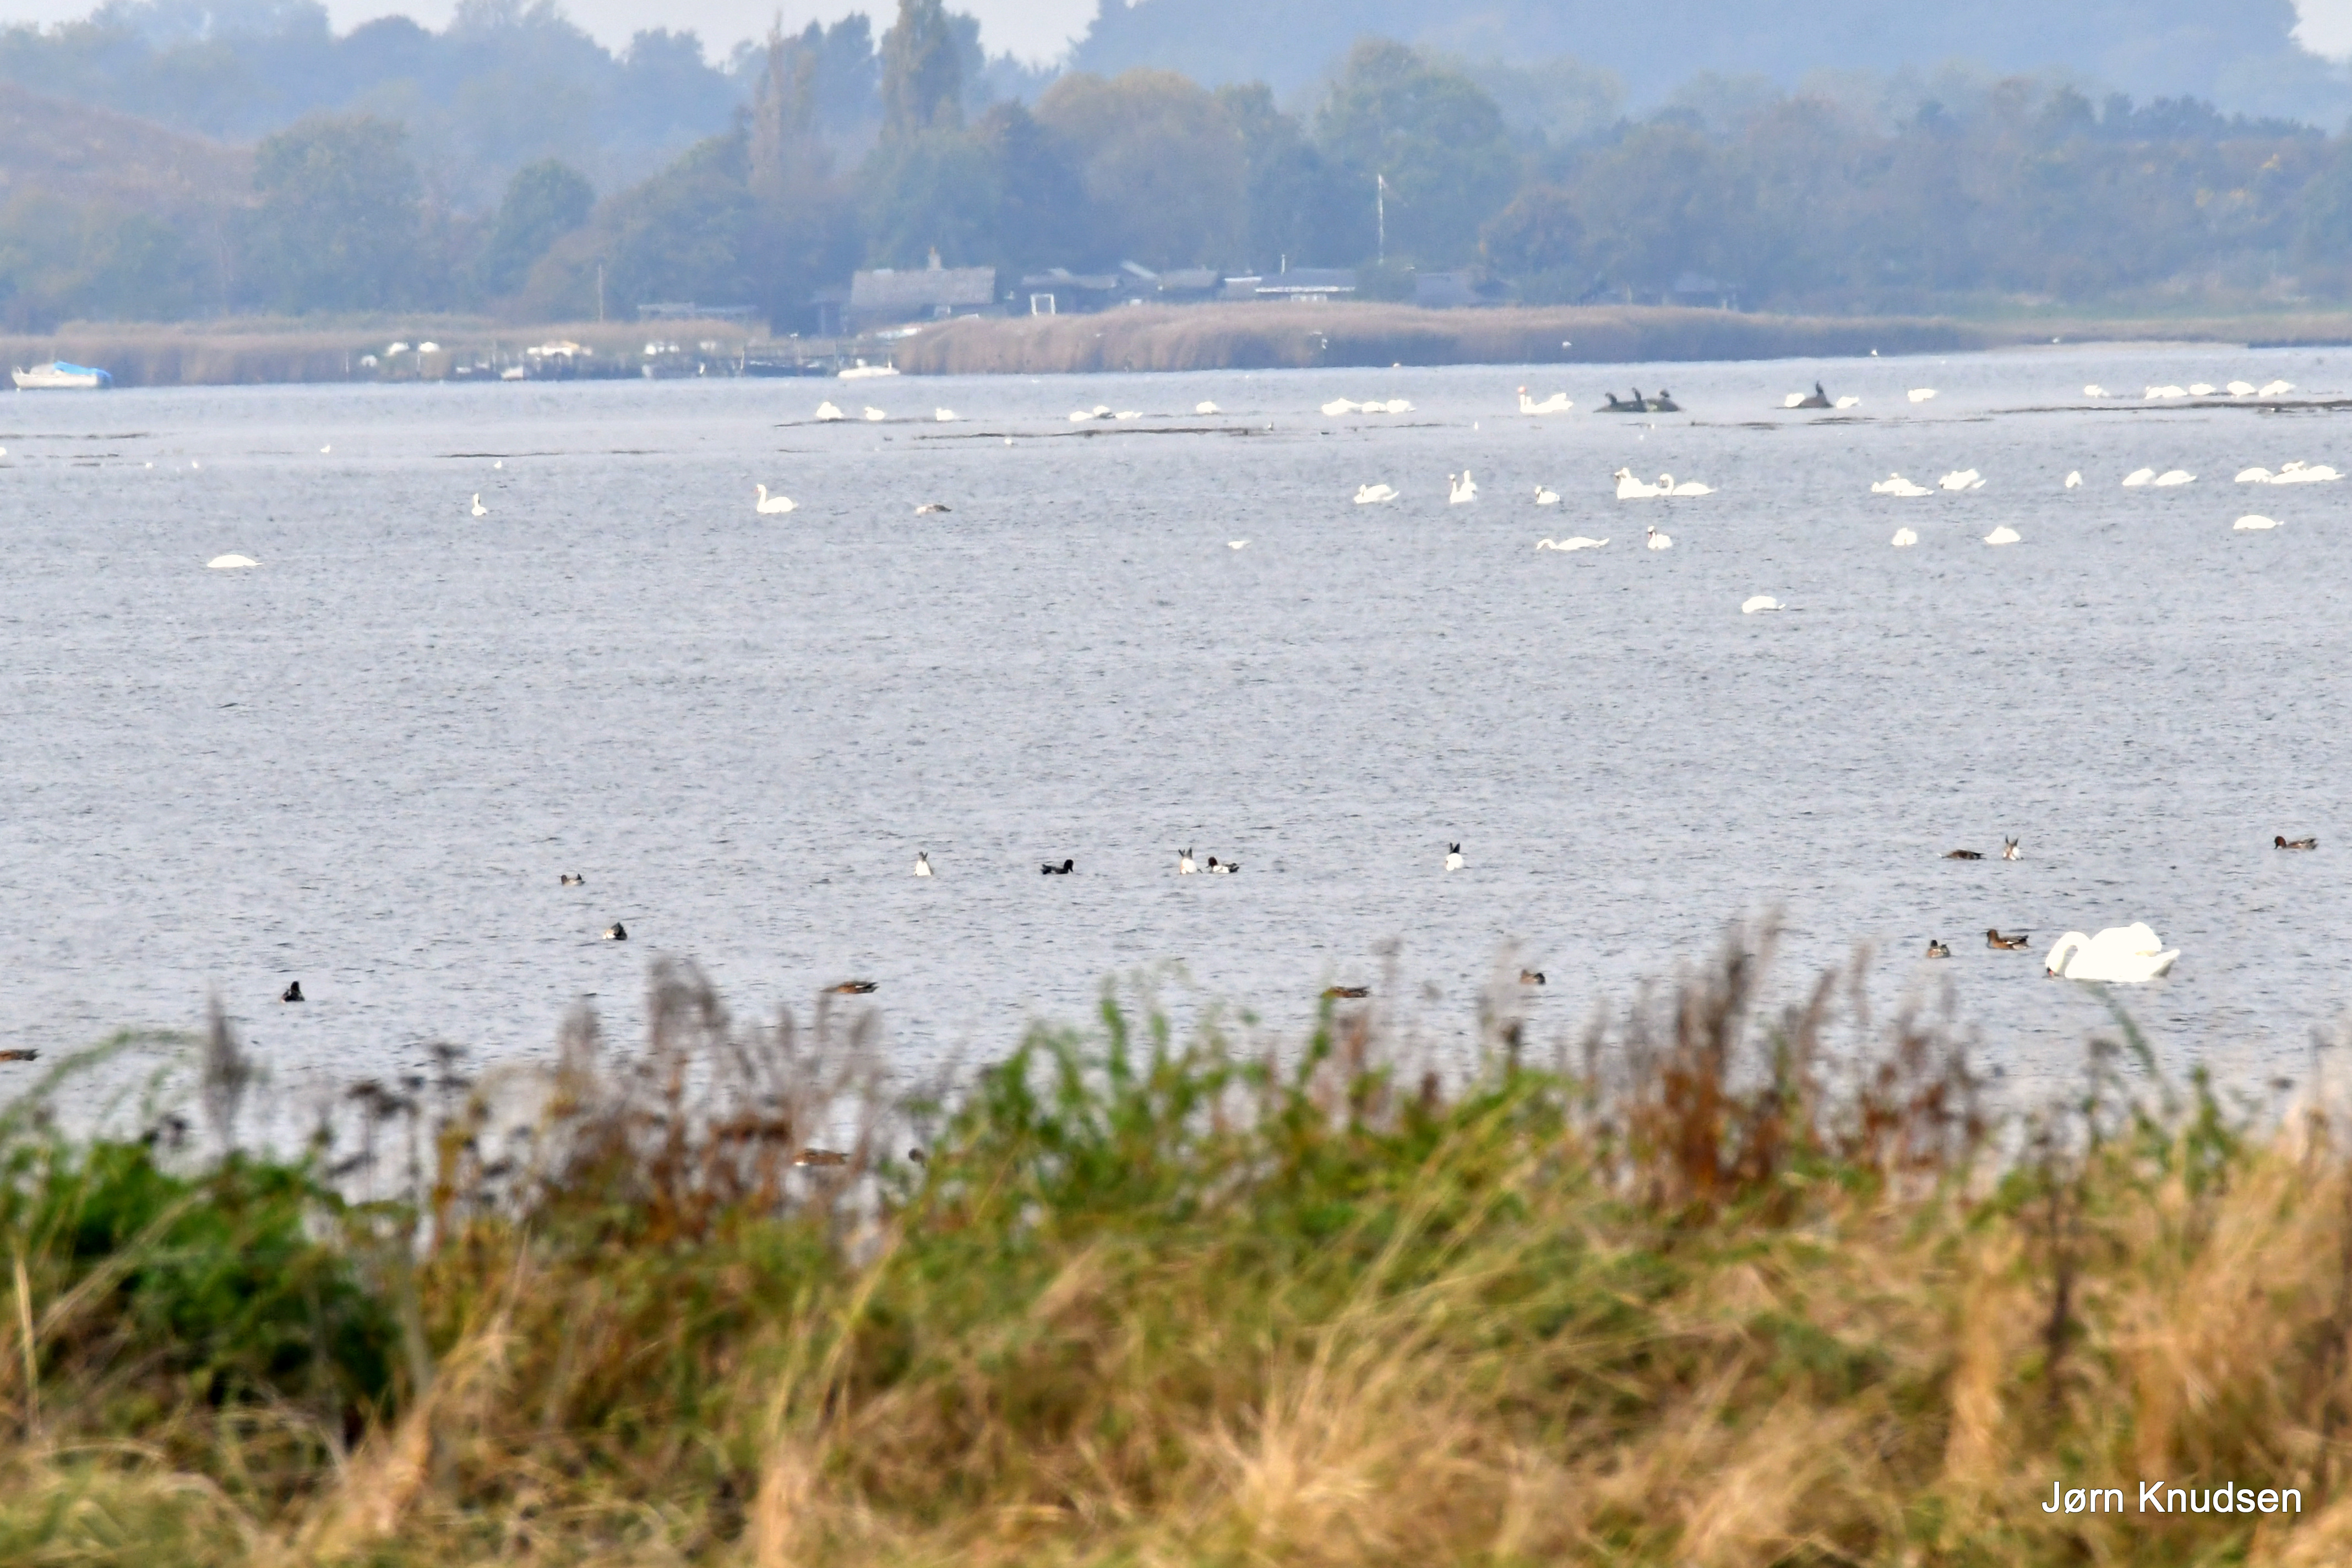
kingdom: Animalia
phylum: Chordata
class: Aves
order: Anseriformes
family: Anatidae
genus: Cygnus
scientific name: Cygnus olor
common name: Knopsvane
